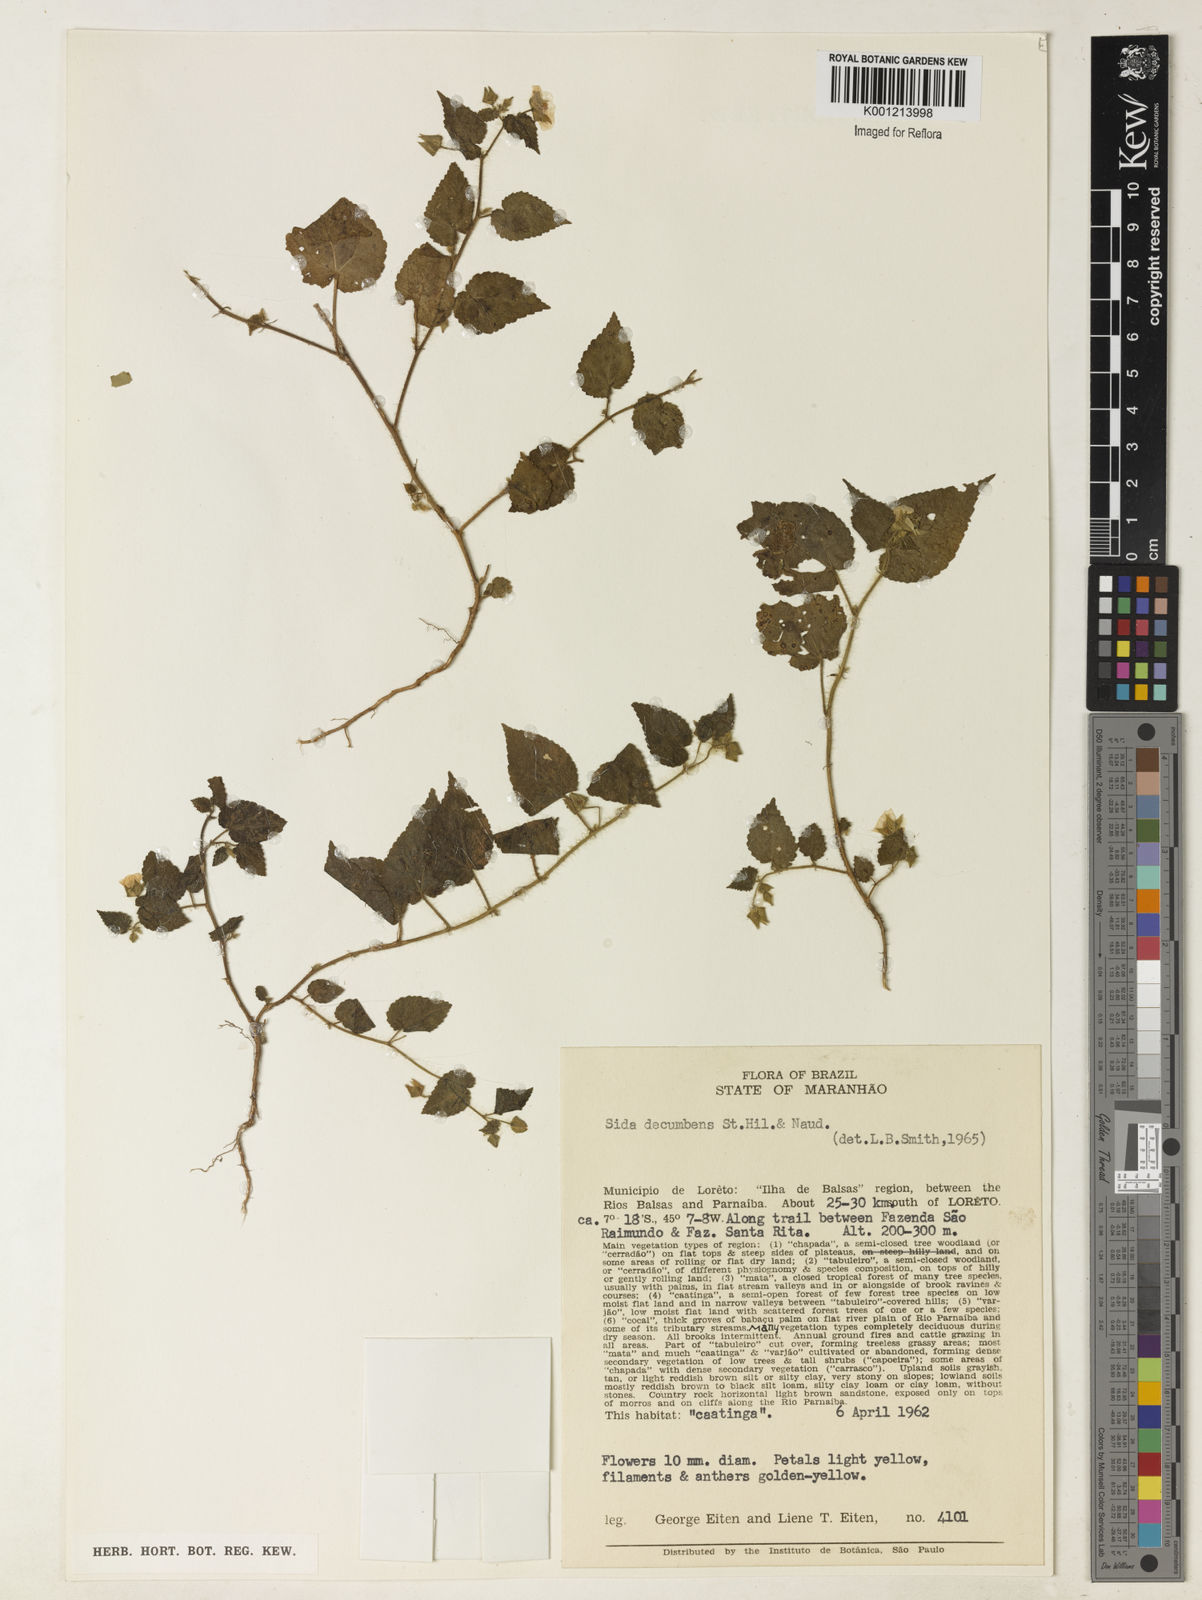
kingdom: Plantae
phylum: Tracheophyta
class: Magnoliopsida
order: Malvales
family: Malvaceae
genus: Sida
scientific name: Sida jussieana
